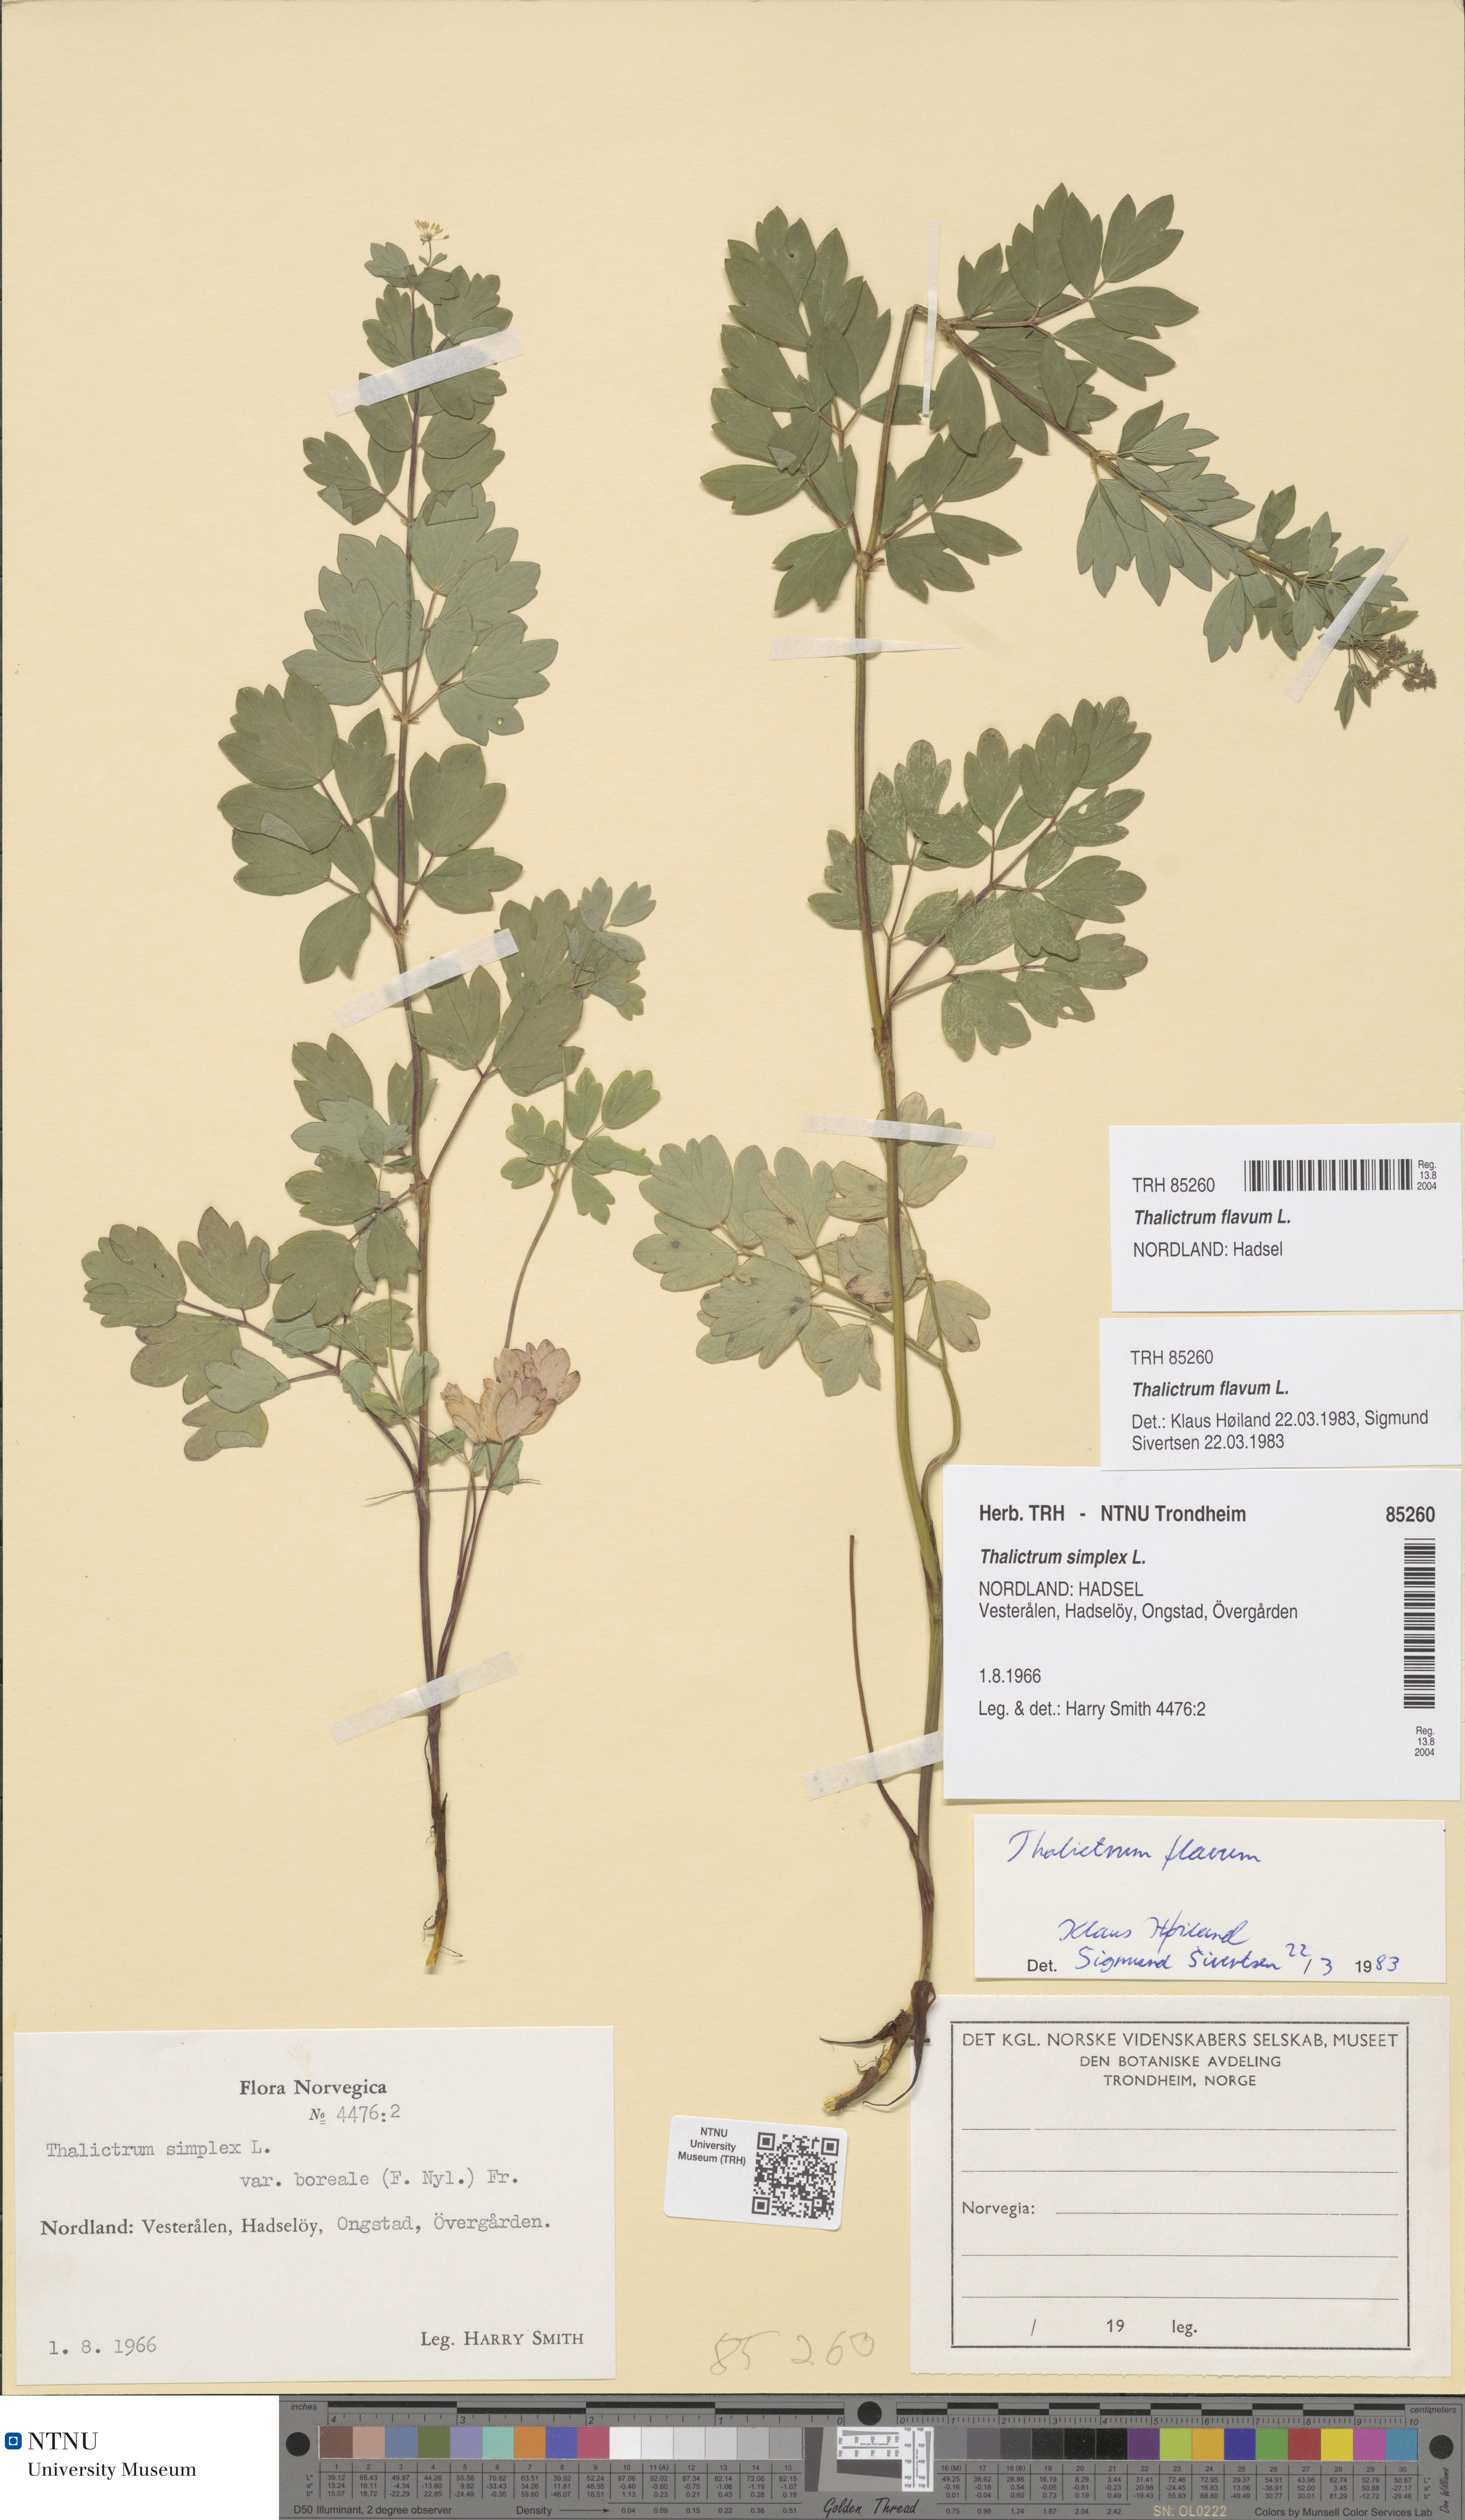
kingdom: Plantae
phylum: Tracheophyta
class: Magnoliopsida
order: Ranunculales
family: Ranunculaceae
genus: Thalictrum
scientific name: Thalictrum flavum
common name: Common meadow-rue
